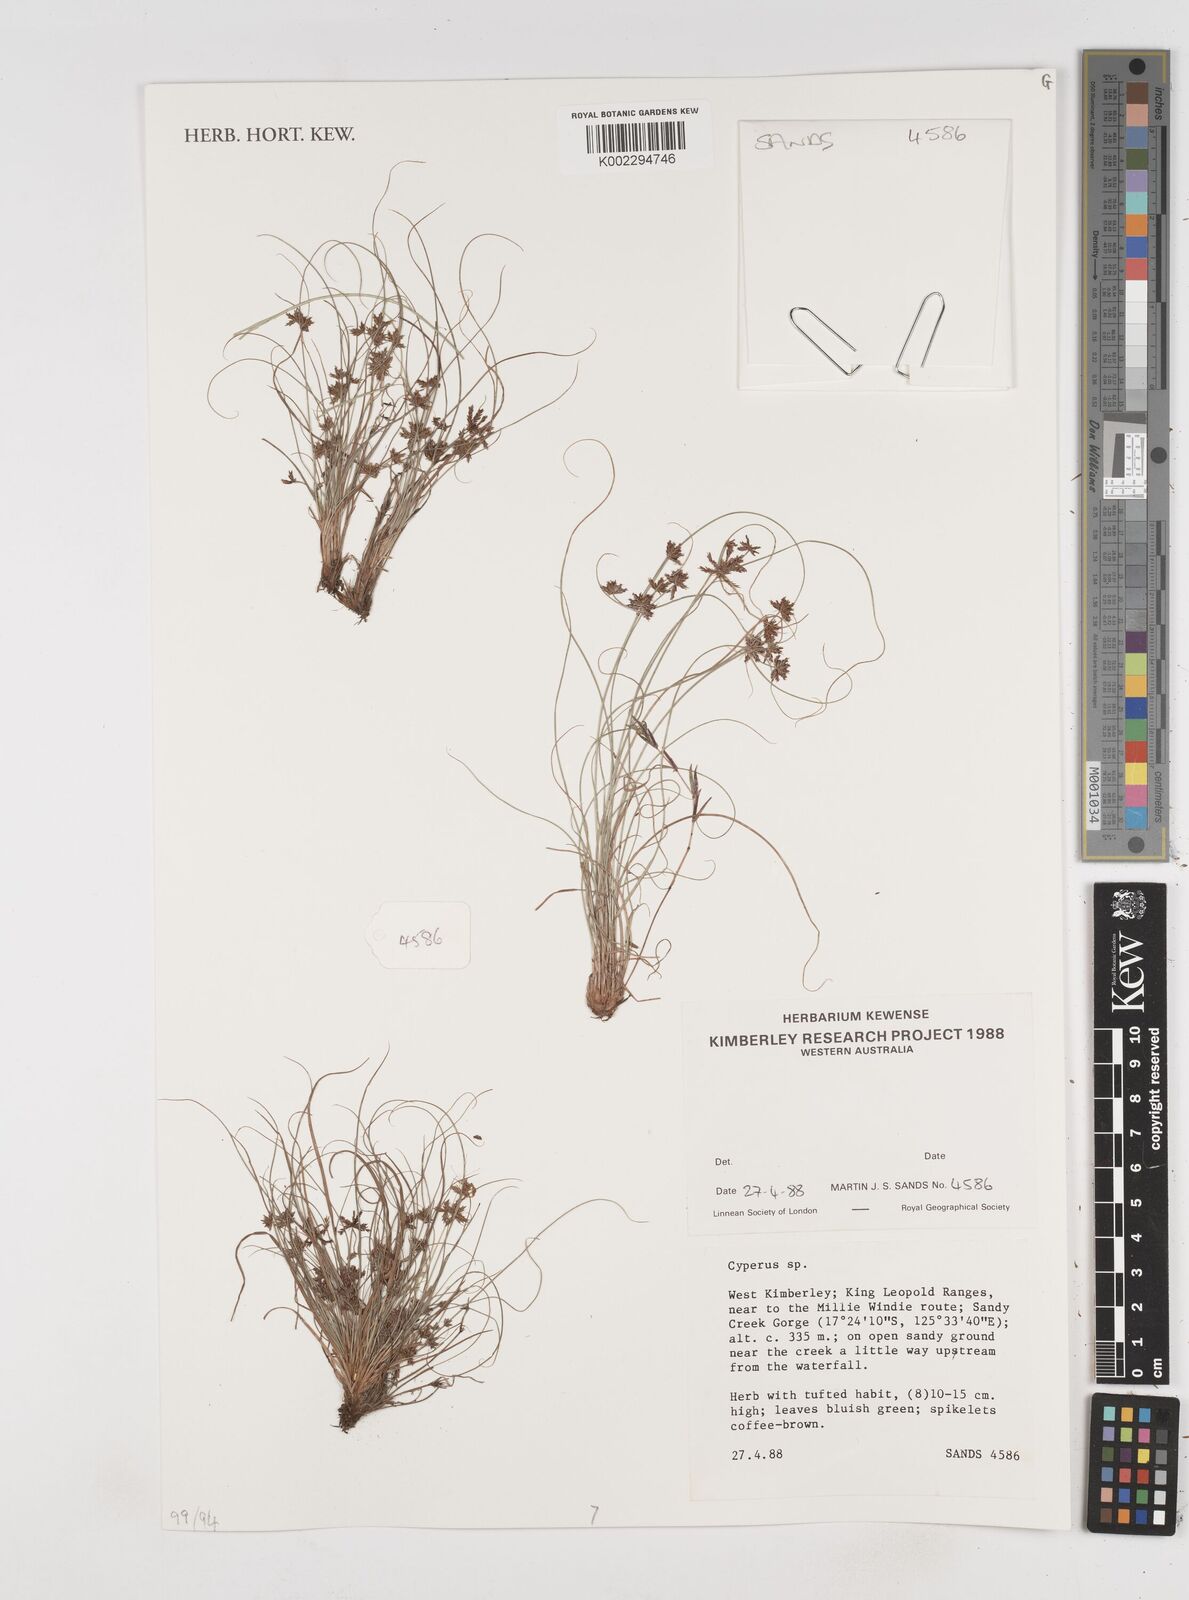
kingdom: Plantae
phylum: Tracheophyta
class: Liliopsida
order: Poales
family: Cyperaceae
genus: Cyperus
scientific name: Cyperus
